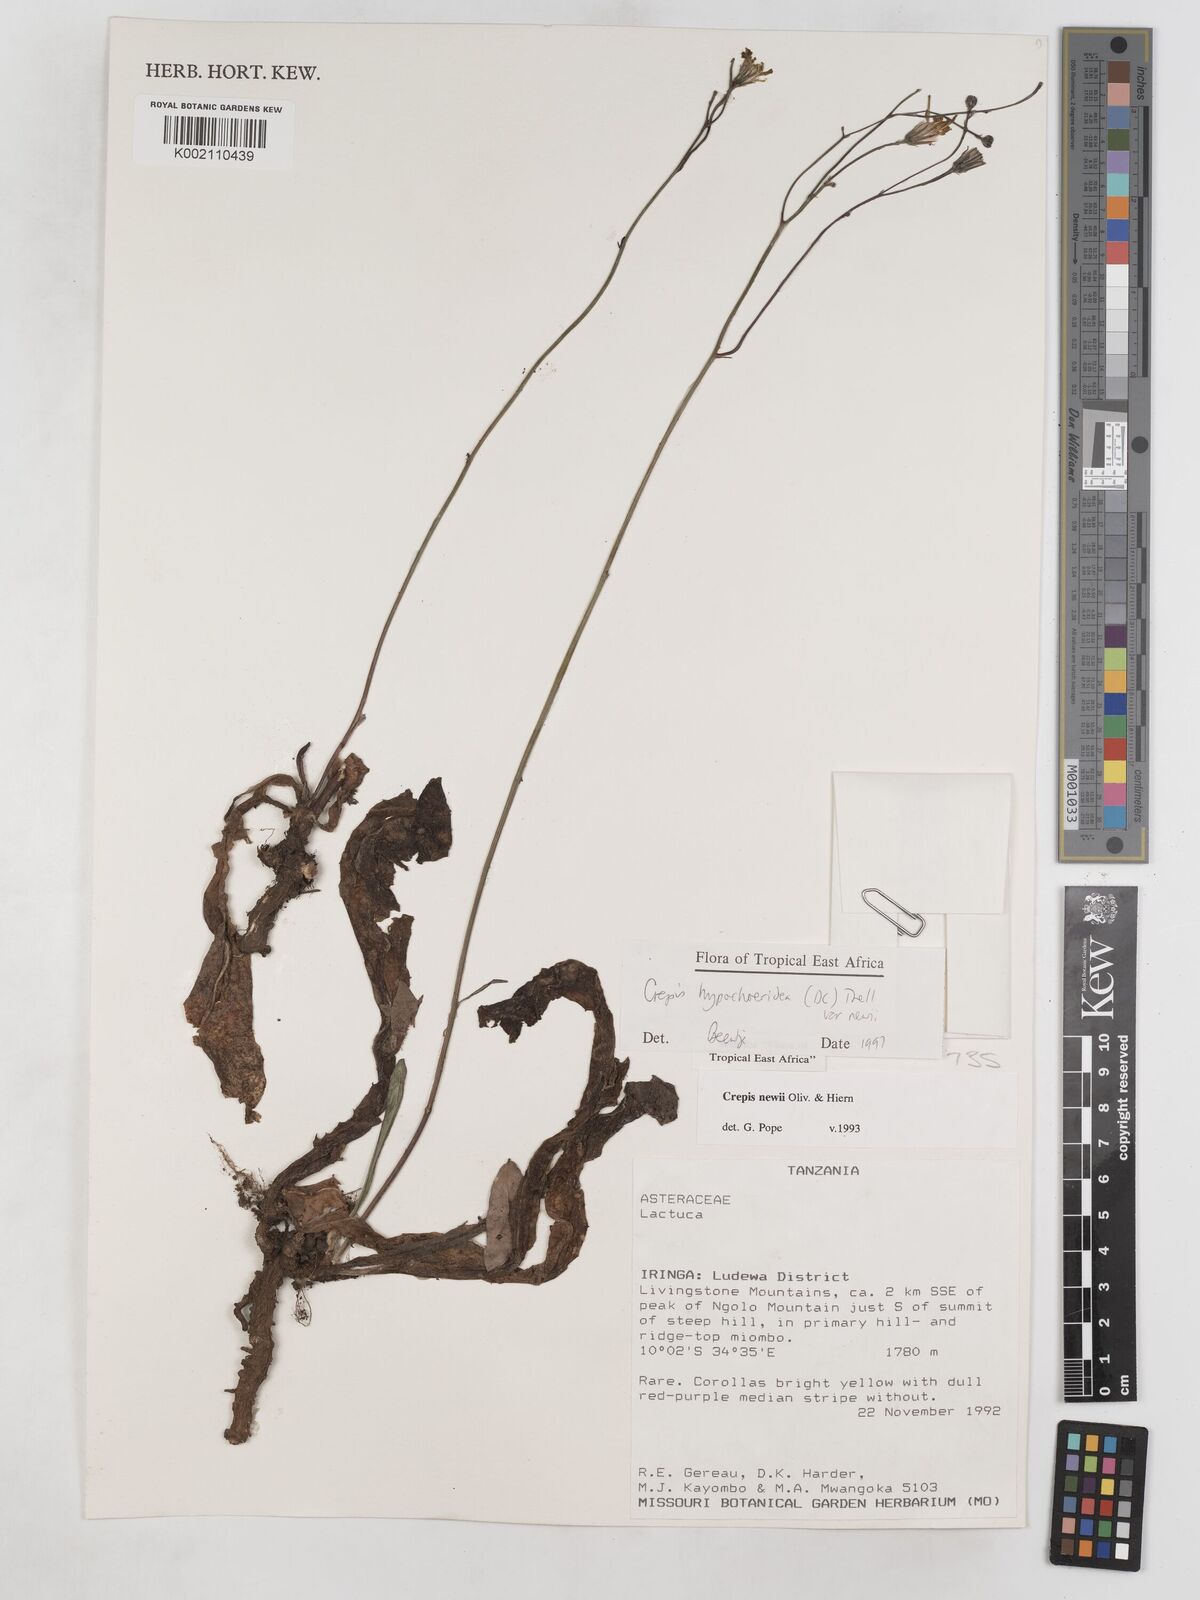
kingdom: Plantae
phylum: Tracheophyta
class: Magnoliopsida
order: Asterales
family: Asteraceae
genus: Crepis
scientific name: Crepis hypochoeridea
